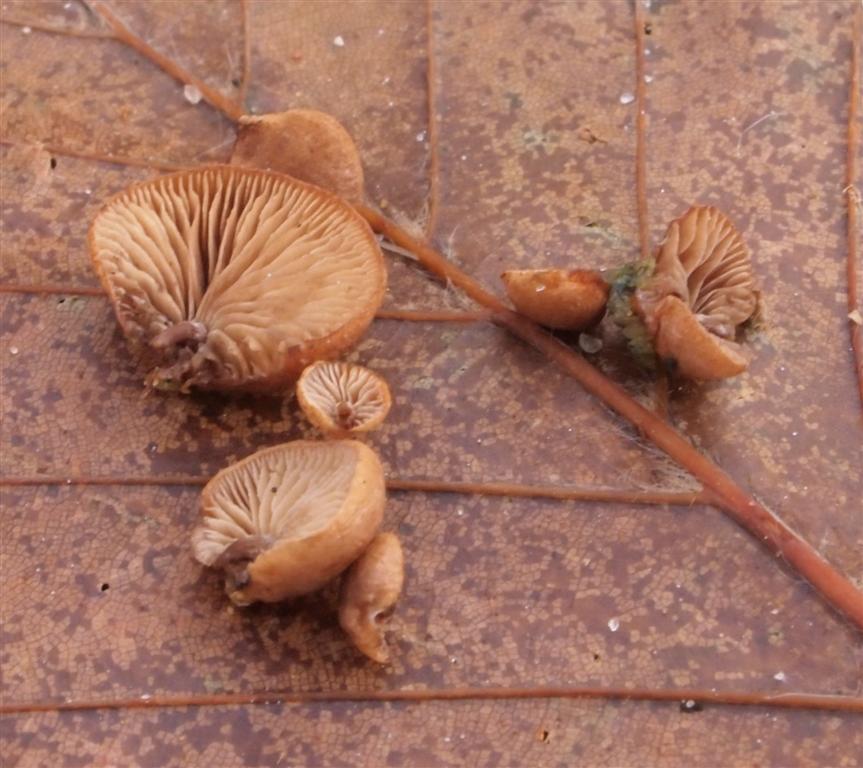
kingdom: Fungi
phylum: Basidiomycota
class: Agaricomycetes
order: Agaricales
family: Strophariaceae
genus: Deconica
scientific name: Deconica horizontalis
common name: ved-stråhat
